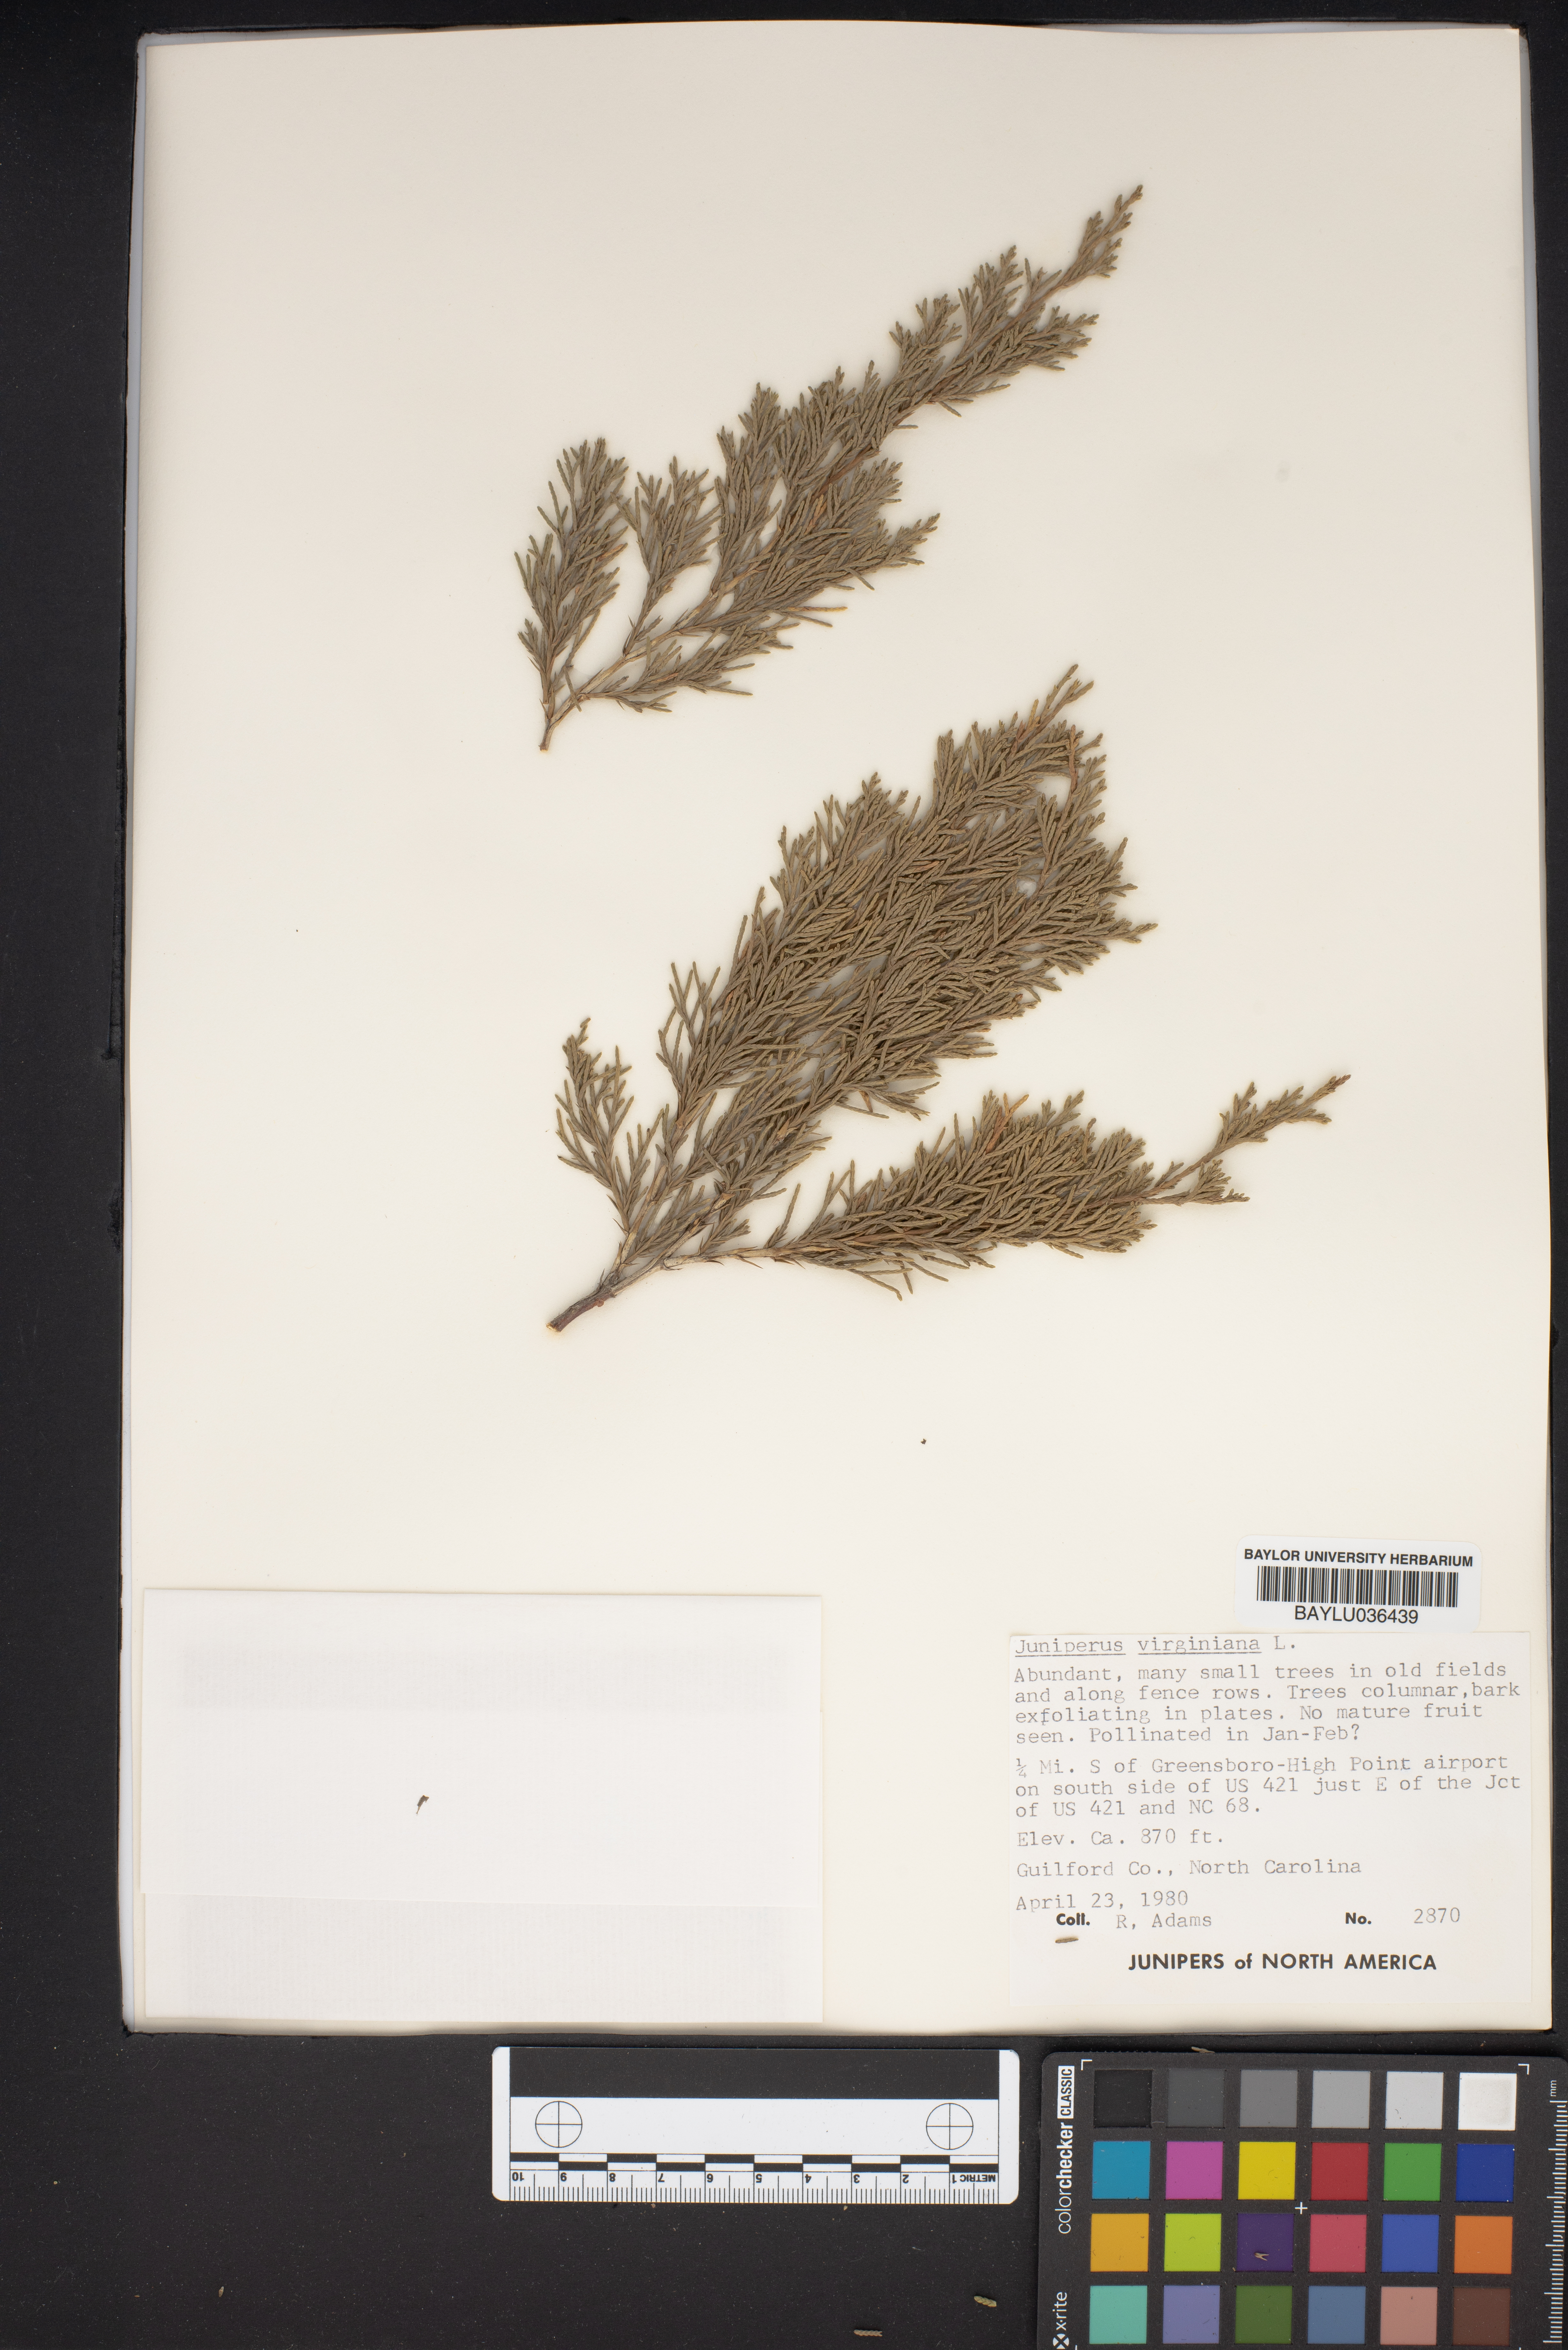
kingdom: Plantae
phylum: Tracheophyta
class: Pinopsida
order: Pinales
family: Cupressaceae
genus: Juniperus
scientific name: Juniperus virginiana
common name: Red juniper
